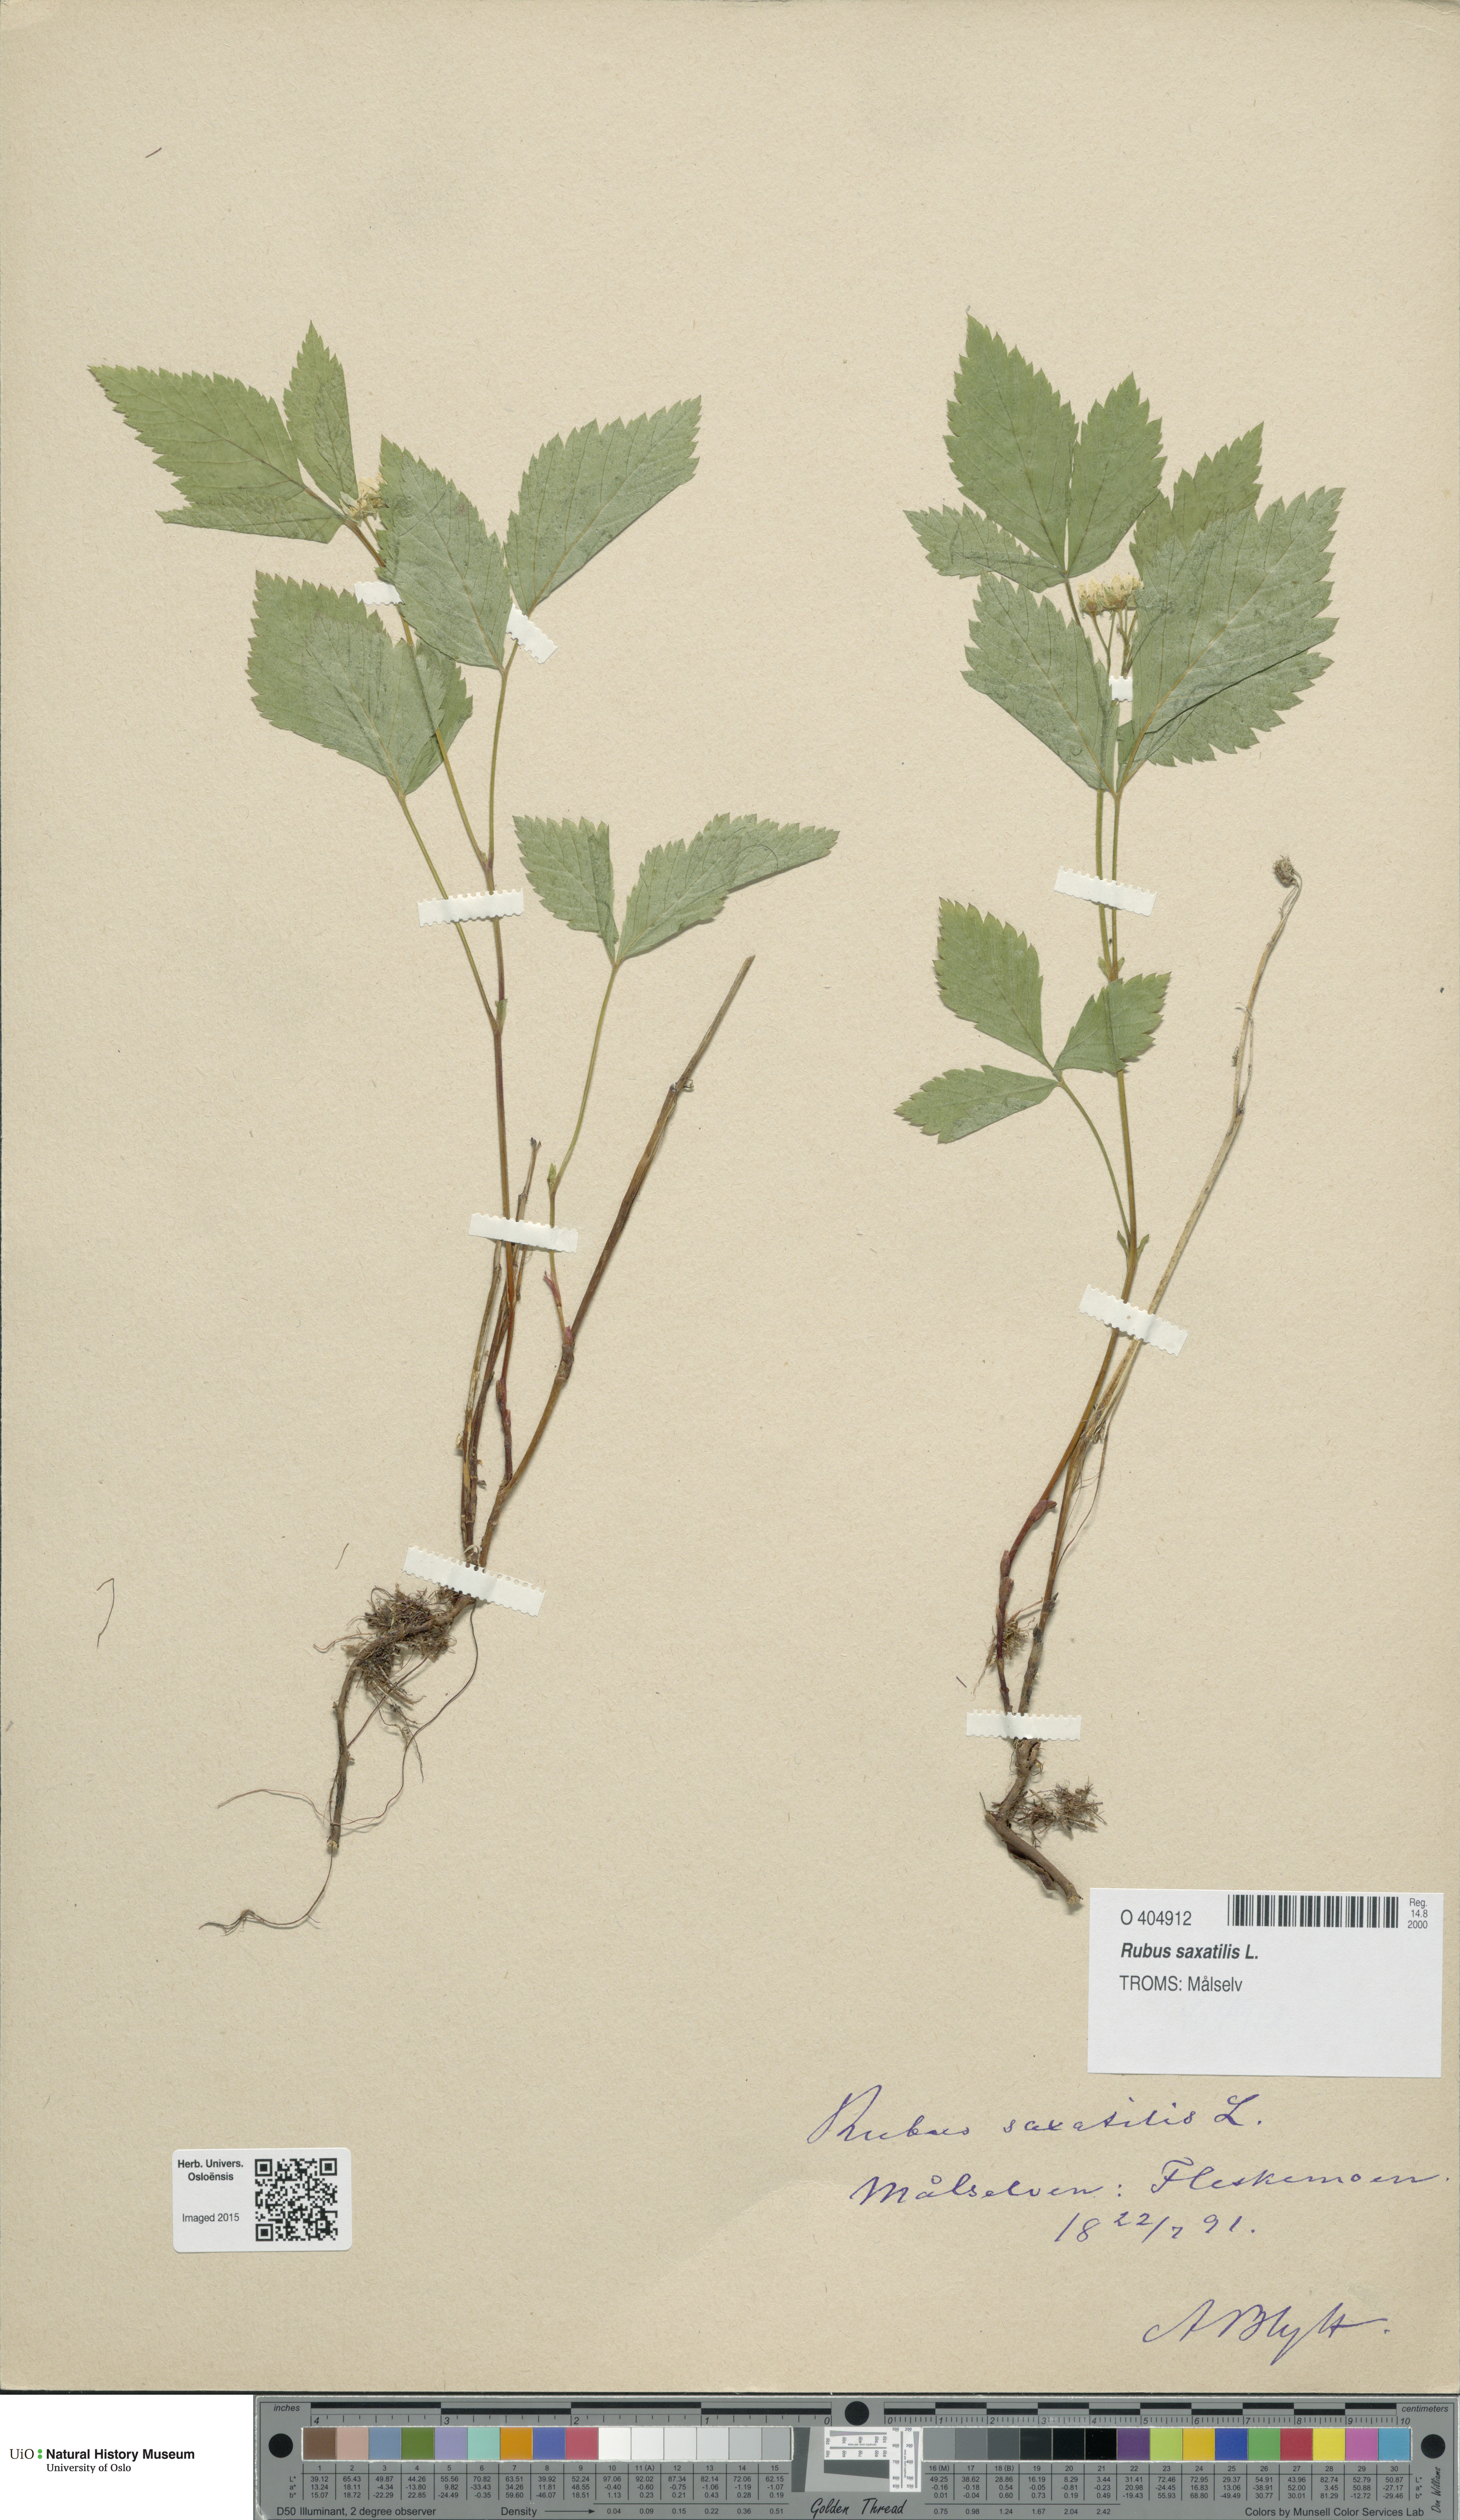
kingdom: Plantae
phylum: Tracheophyta
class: Magnoliopsida
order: Rosales
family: Rosaceae
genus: Rubus
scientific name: Rubus saxatilis
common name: Stone bramble
